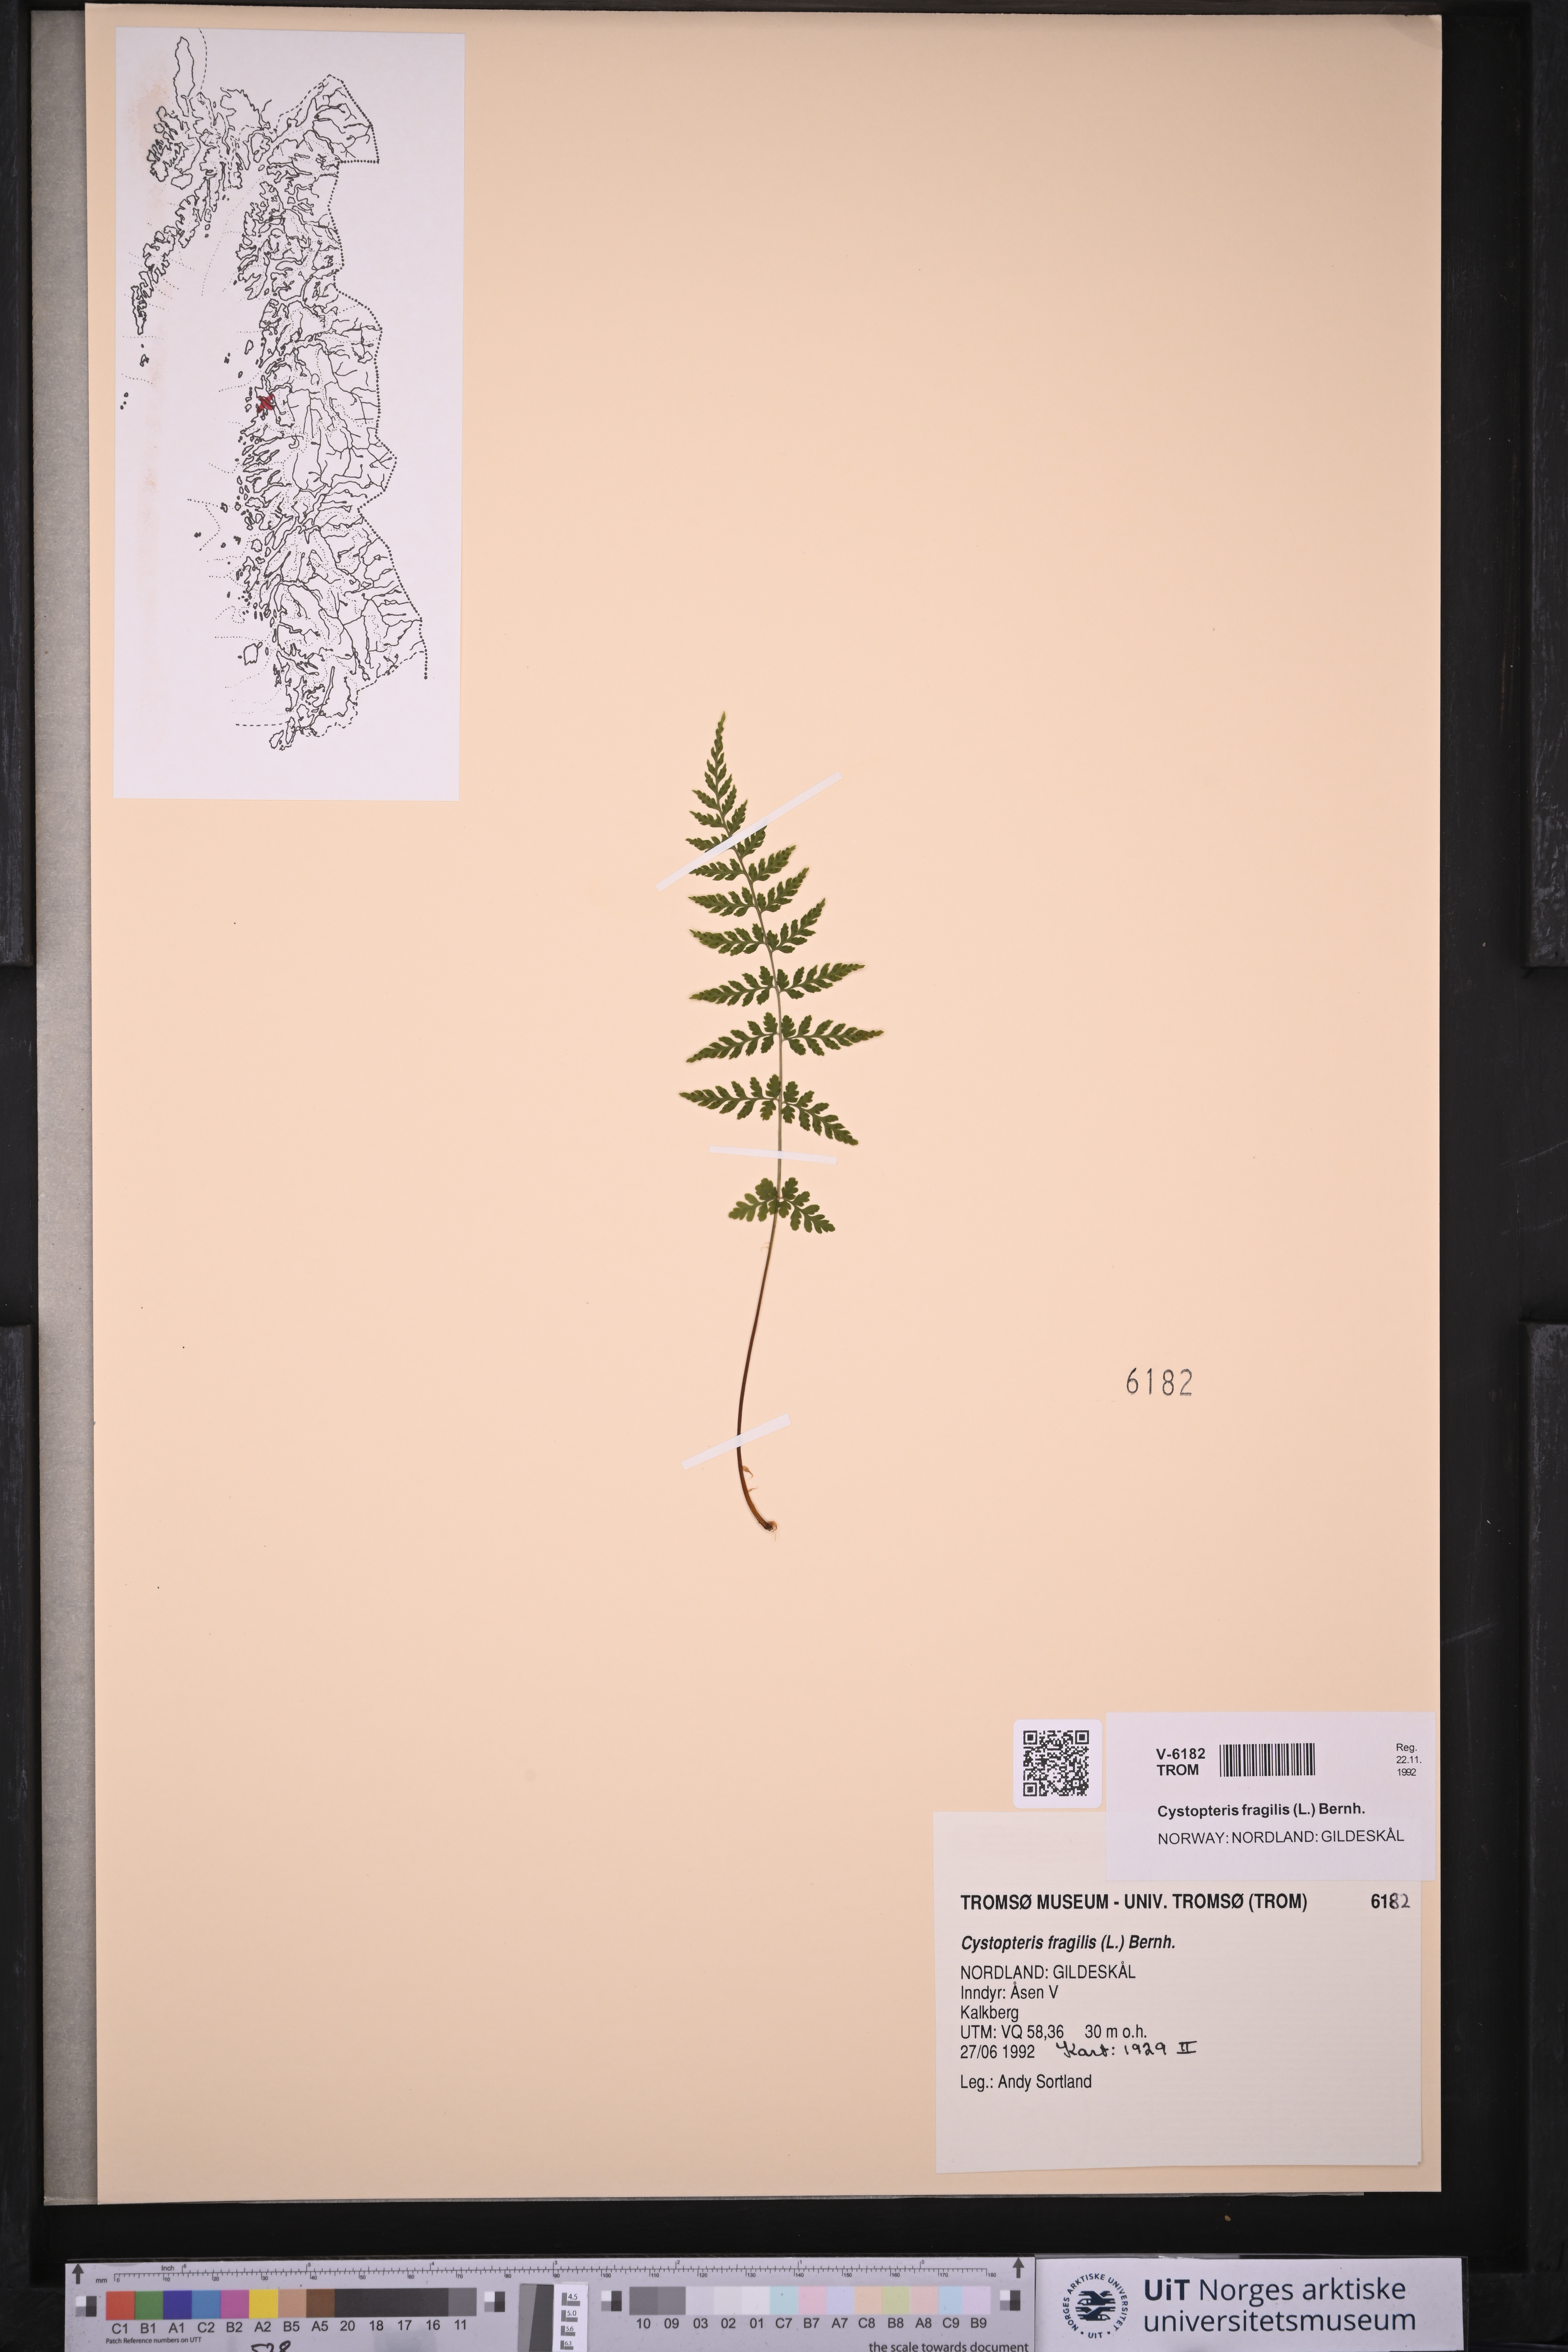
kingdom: Plantae
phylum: Tracheophyta
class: Polypodiopsida
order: Polypodiales
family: Cystopteridaceae
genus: Cystopteris
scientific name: Cystopteris fragilis
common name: Brittle bladder fern
